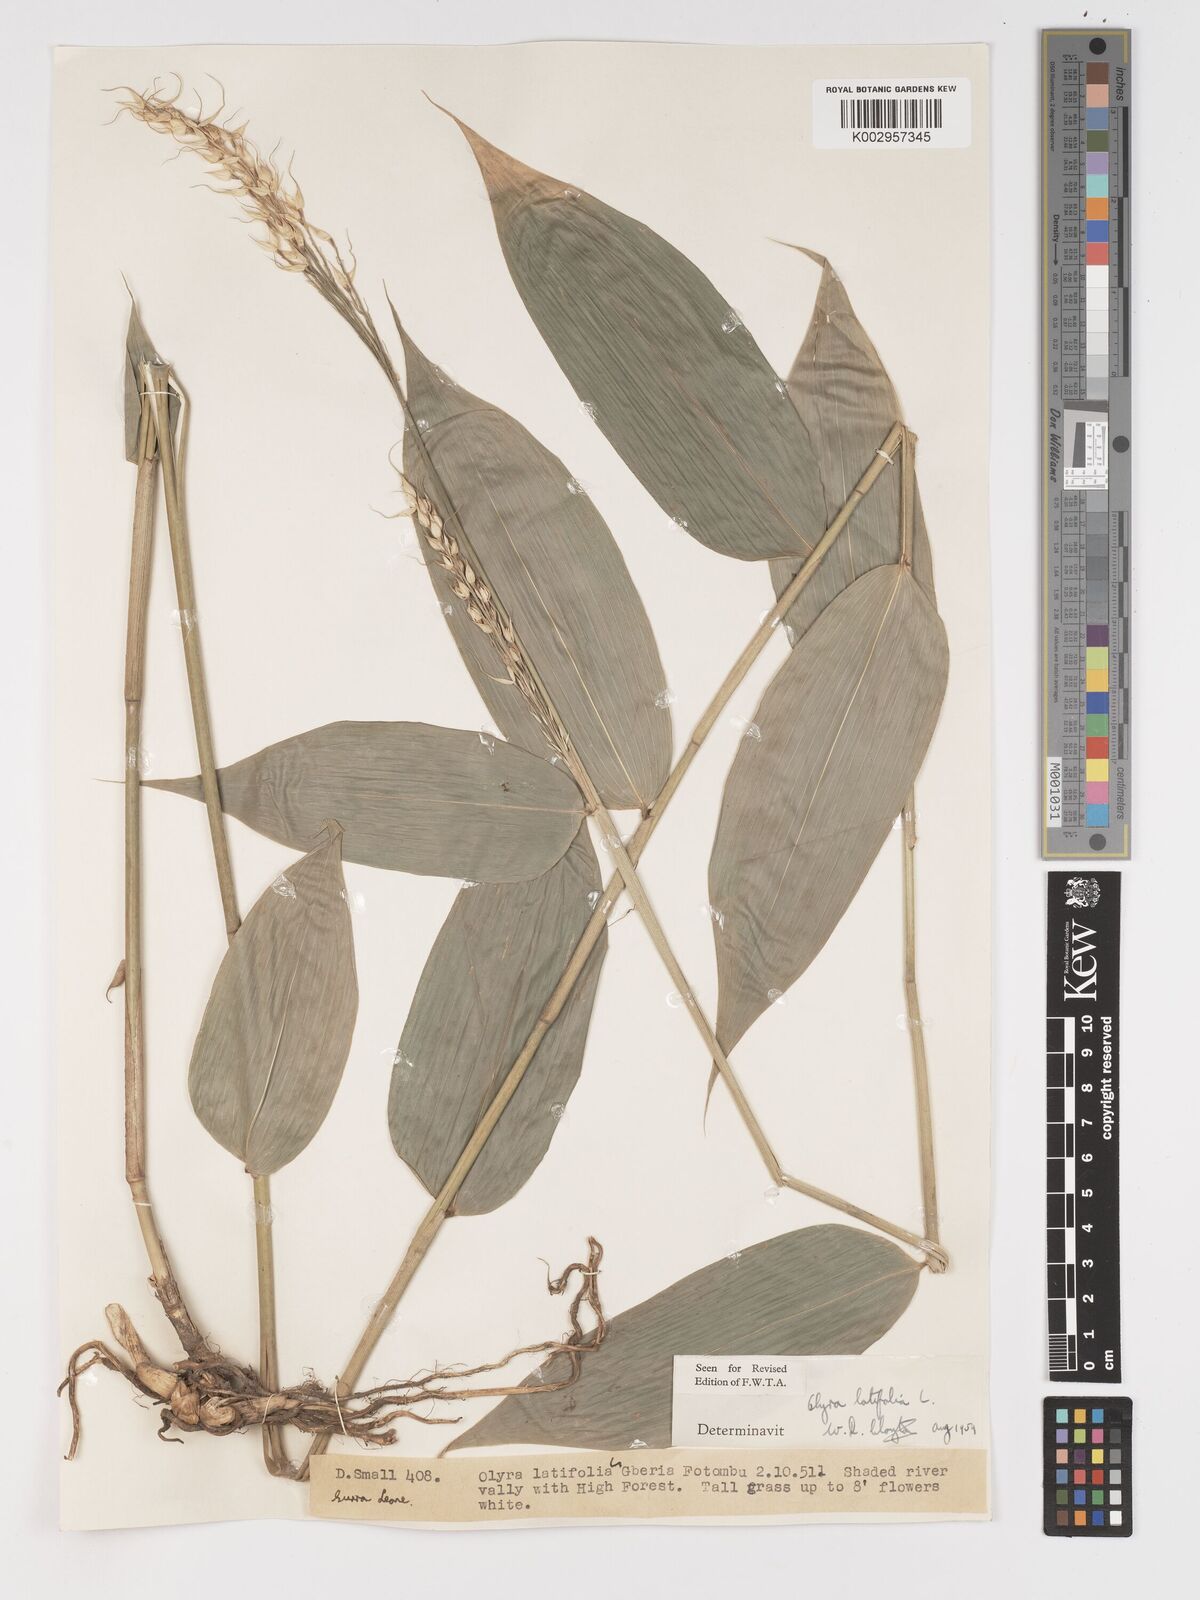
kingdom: Plantae
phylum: Tracheophyta
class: Liliopsida
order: Poales
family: Poaceae
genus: Olyra
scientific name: Olyra latifolia
